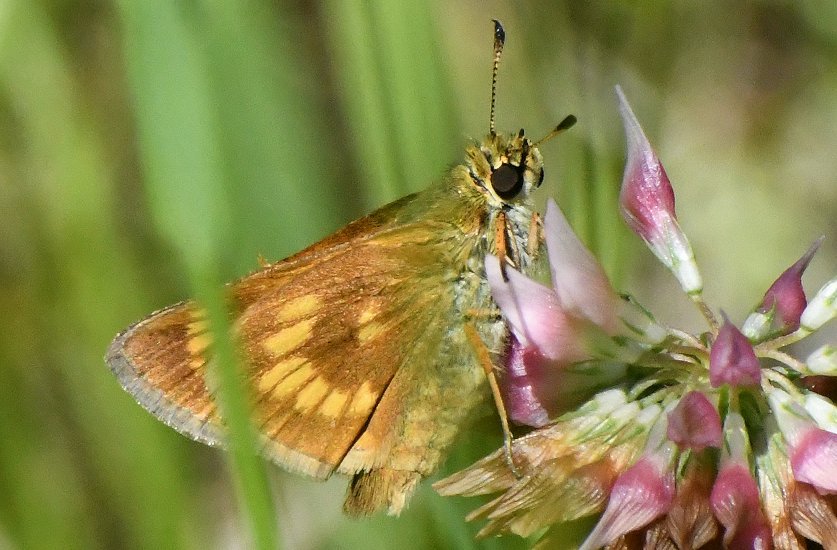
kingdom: Animalia
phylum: Arthropoda
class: Insecta
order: Lepidoptera
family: Hesperiidae
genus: Polites
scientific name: Polites
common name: Long Dash Skipper
